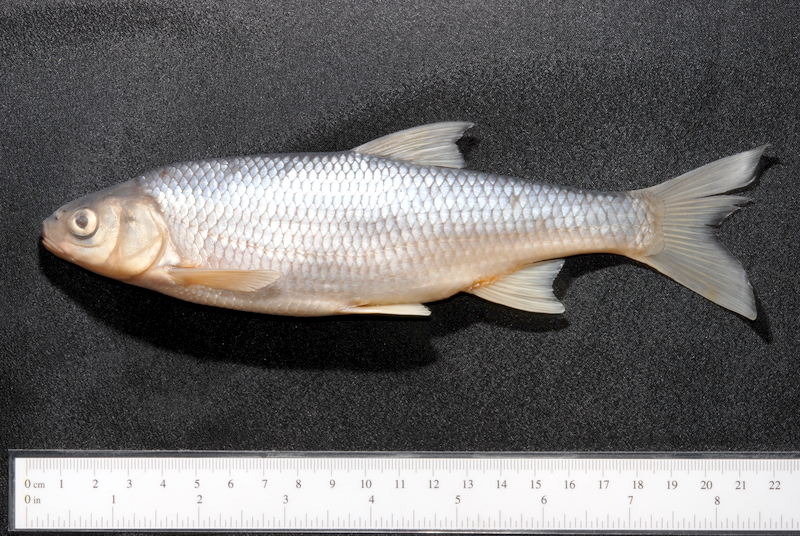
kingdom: Animalia
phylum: Chordata
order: Cypriniformes
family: Cyprinidae
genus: Leuciscus
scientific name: Leuciscus leuciscus
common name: Dace
